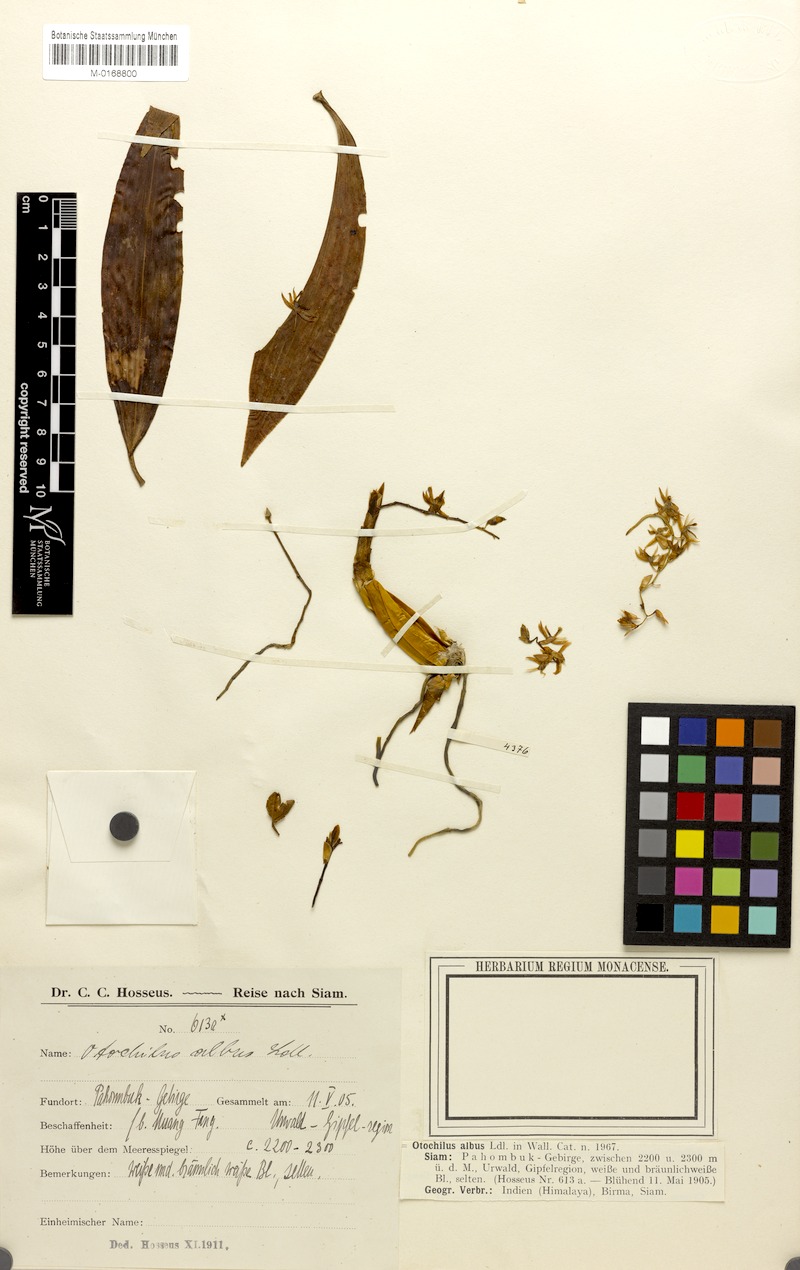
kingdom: Plantae
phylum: Tracheophyta
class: Liliopsida
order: Asparagales
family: Orchidaceae
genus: Coelogyne
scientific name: Coelogyne alba
